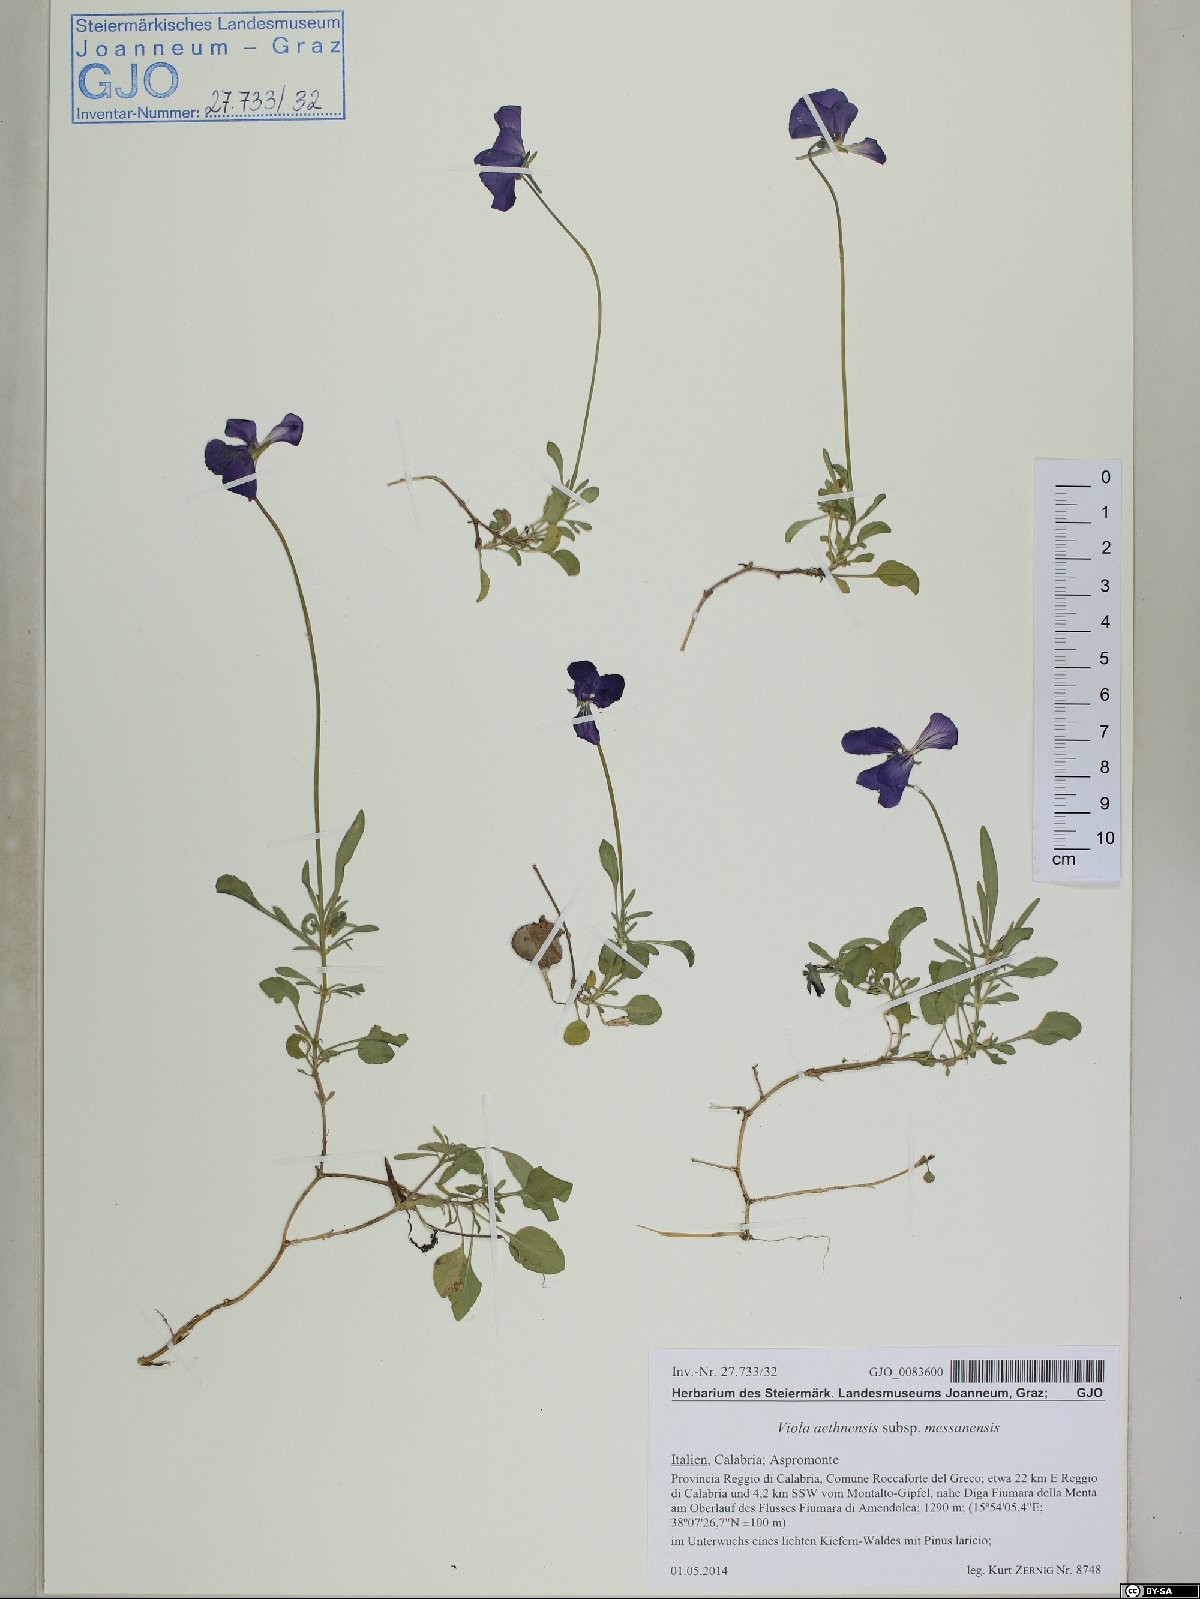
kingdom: Plantae
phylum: Tracheophyta
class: Magnoliopsida
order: Malpighiales
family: Violaceae
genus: Viola
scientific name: Viola aethnensis
